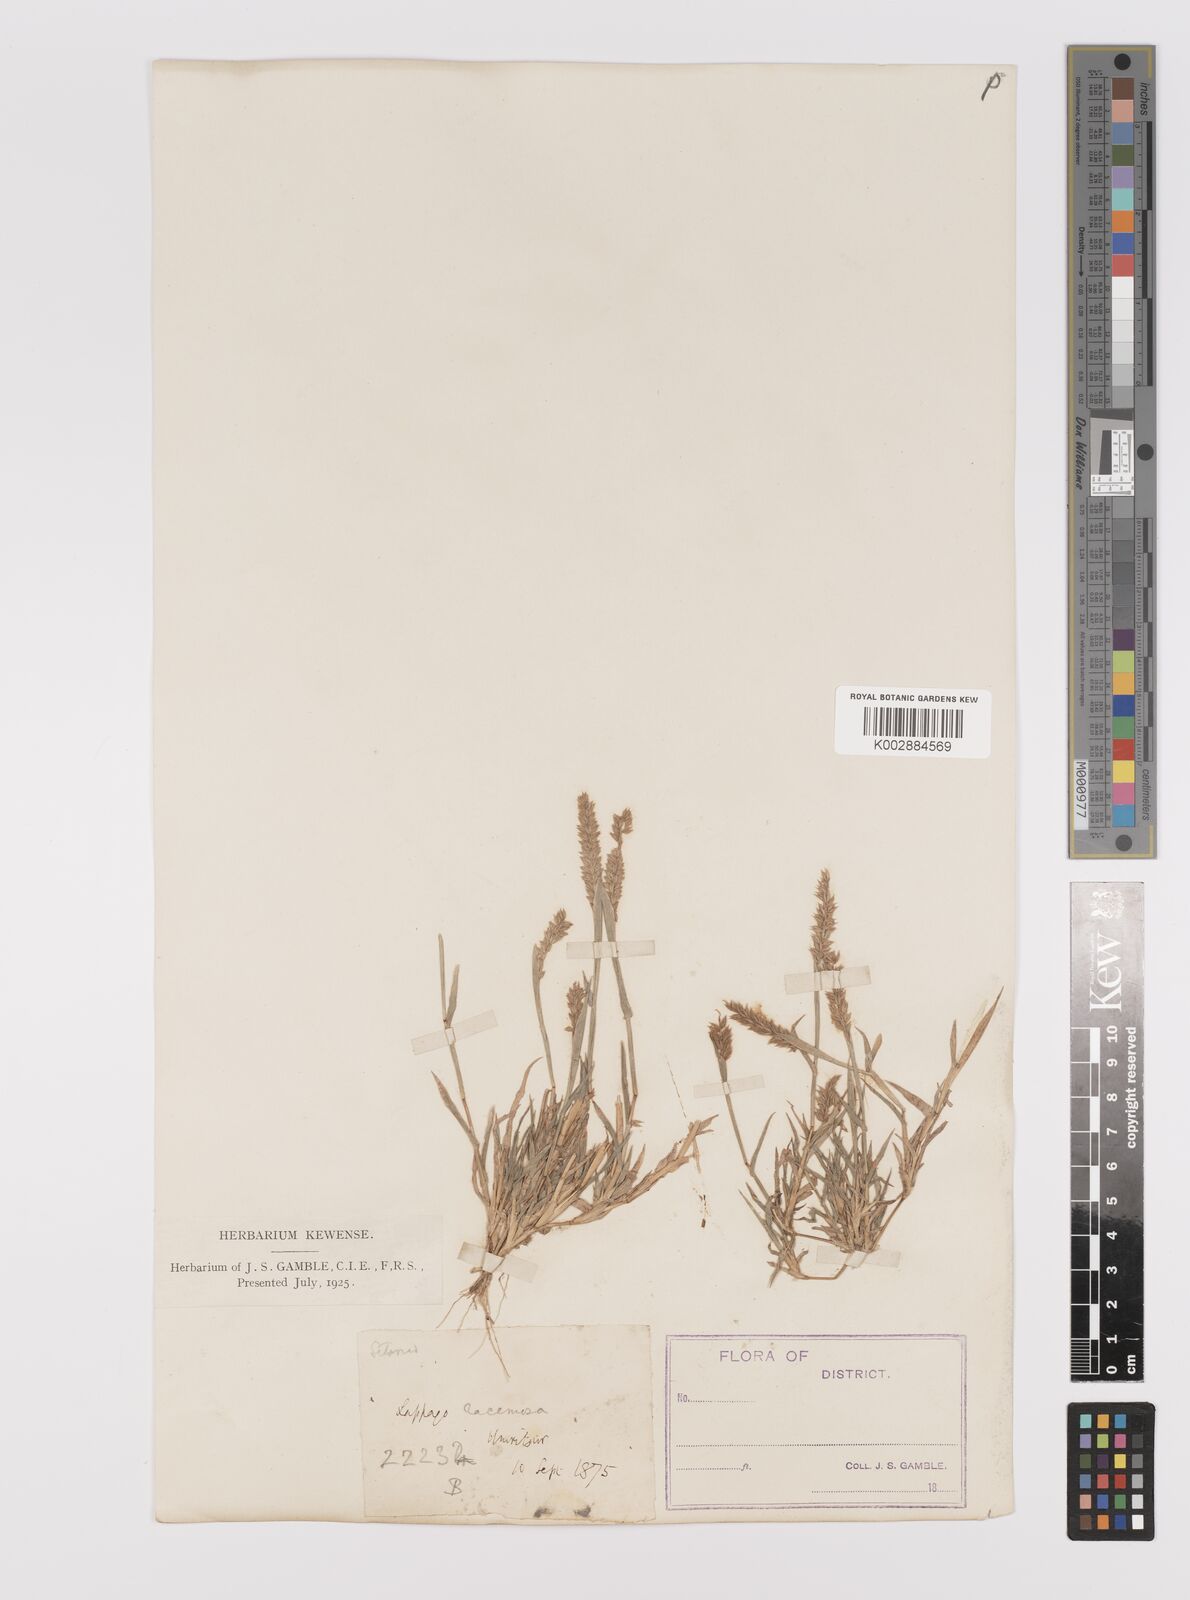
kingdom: Plantae
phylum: Tracheophyta
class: Liliopsida
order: Poales
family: Poaceae
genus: Tragus
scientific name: Tragus mongolorum
